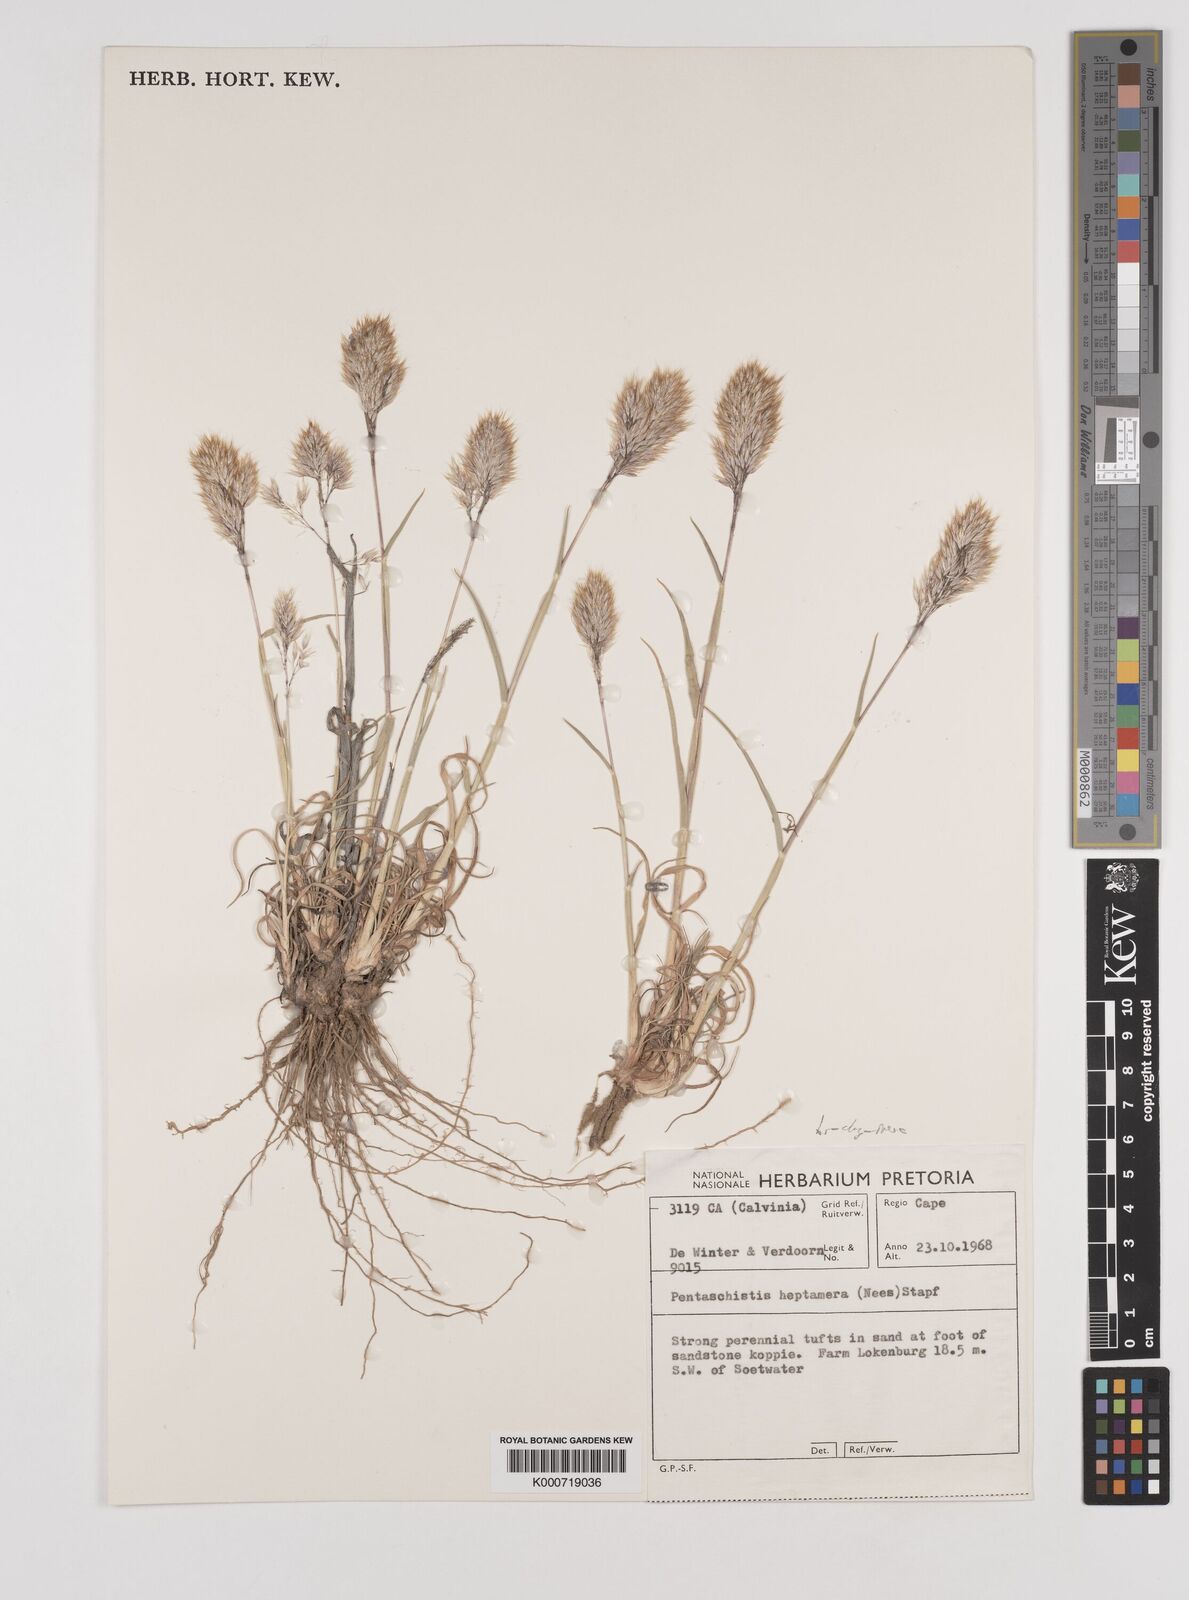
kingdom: Plantae
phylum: Tracheophyta
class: Liliopsida
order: Poales
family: Poaceae
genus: Pentameris
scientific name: Pentameris pallida
